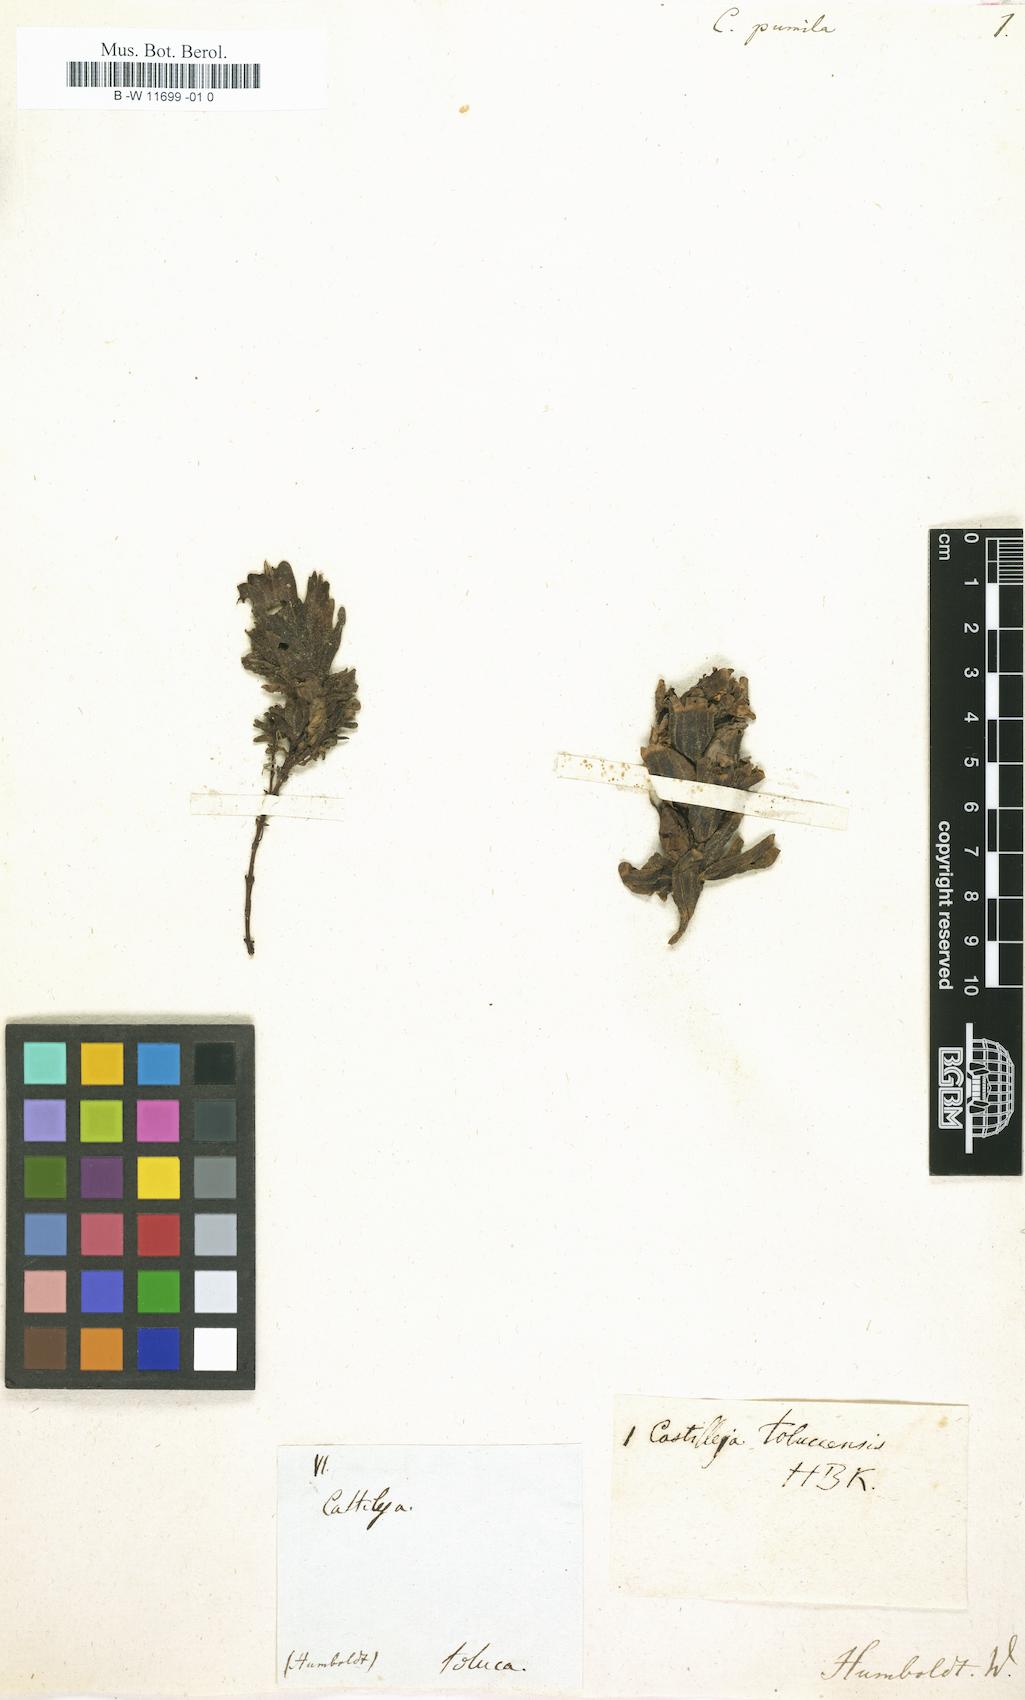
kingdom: Plantae
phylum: Tracheophyta
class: Magnoliopsida
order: Lamiales
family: Orobanchaceae
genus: Castilleja
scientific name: Castilleja pumila
